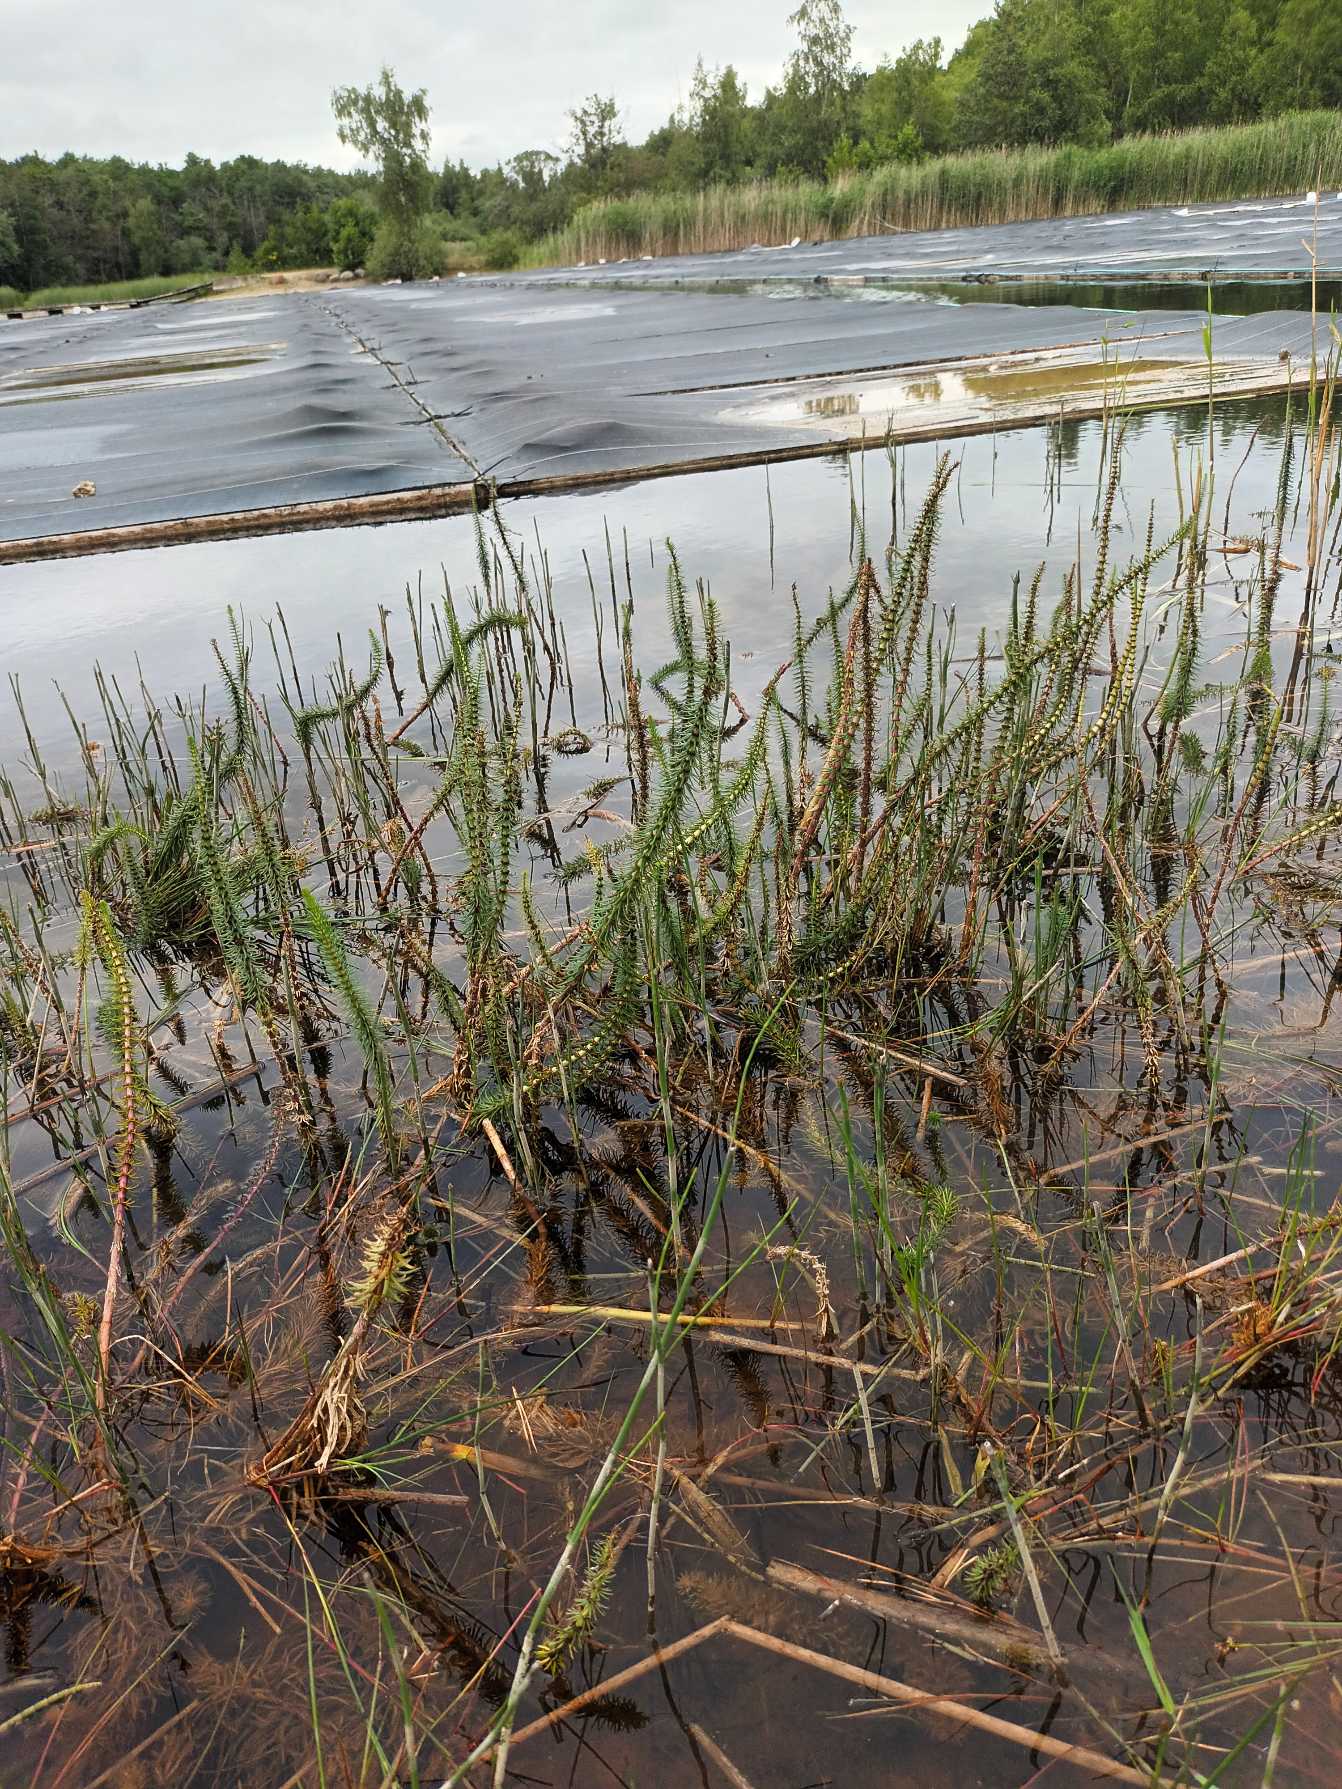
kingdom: Plantae
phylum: Tracheophyta
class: Magnoliopsida
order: Lamiales
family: Plantaginaceae
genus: Hippuris
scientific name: Hippuris vulgaris
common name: Vandspir
